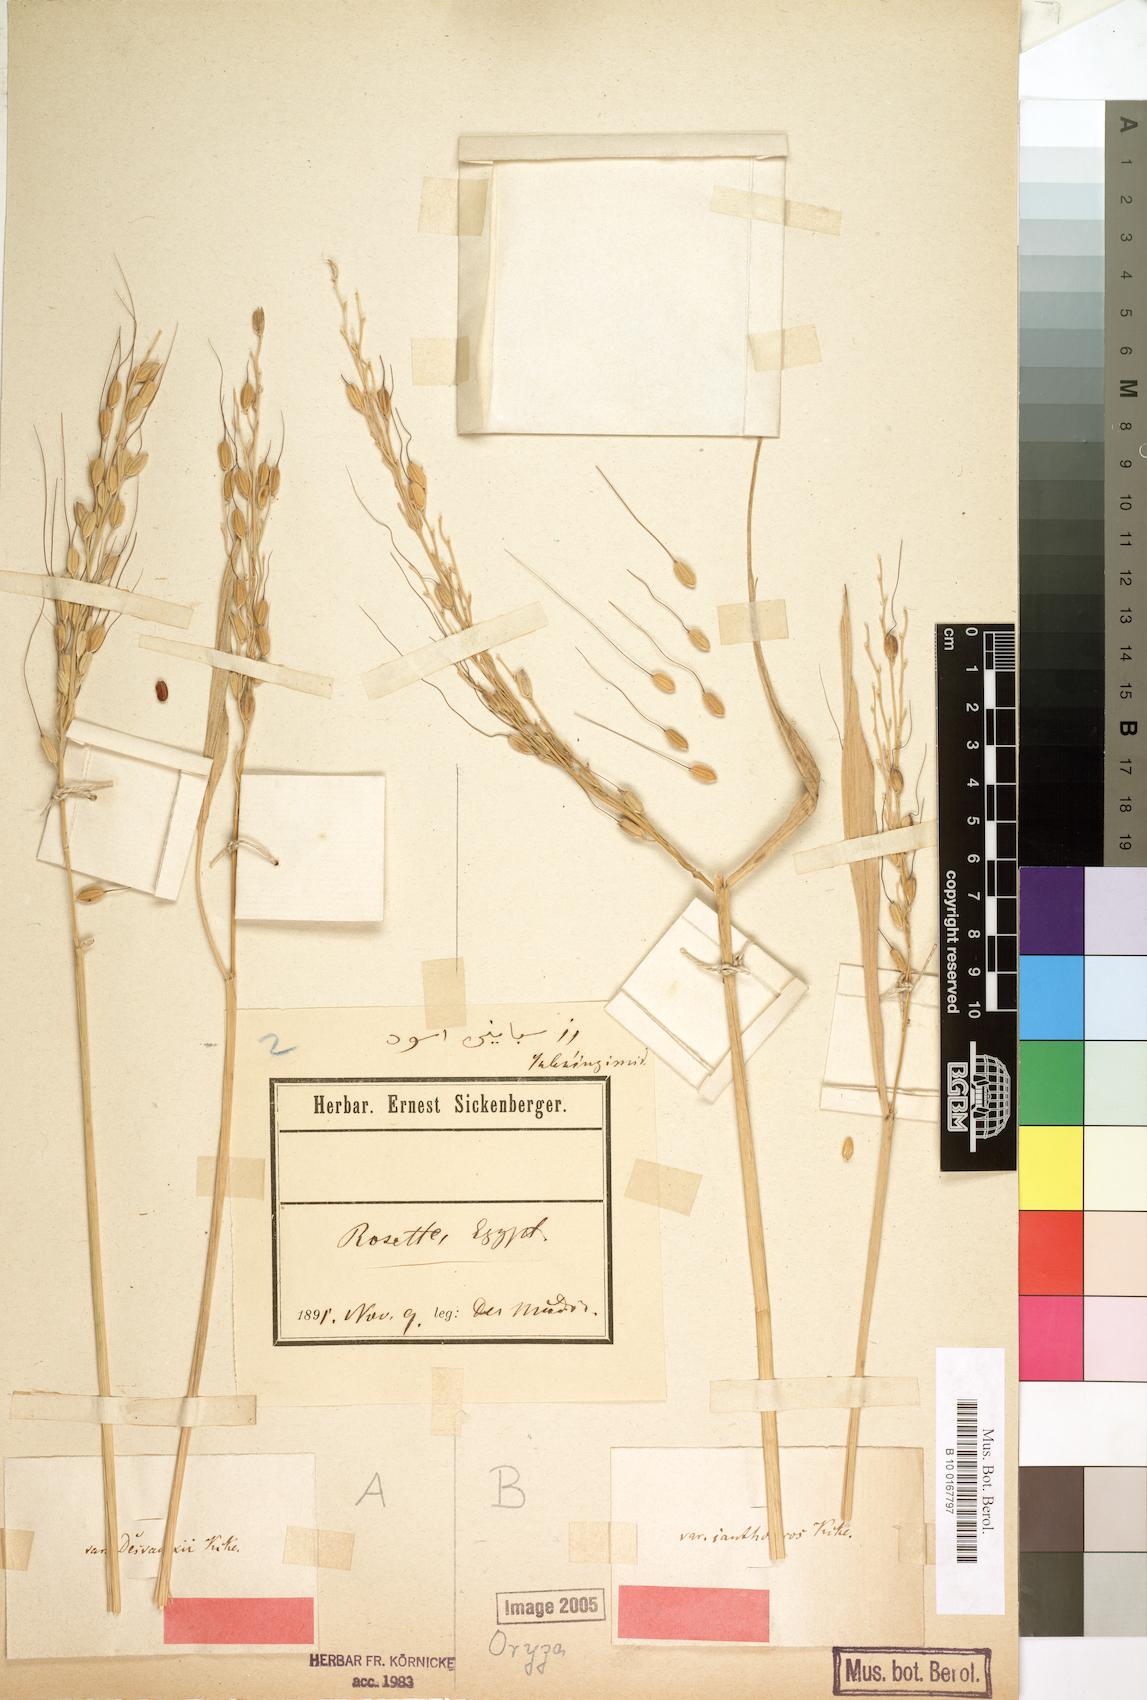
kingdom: Plantae
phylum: Tracheophyta
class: Liliopsida
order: Poales
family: Poaceae
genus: Oryza
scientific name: Oryza sativa
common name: Rice
